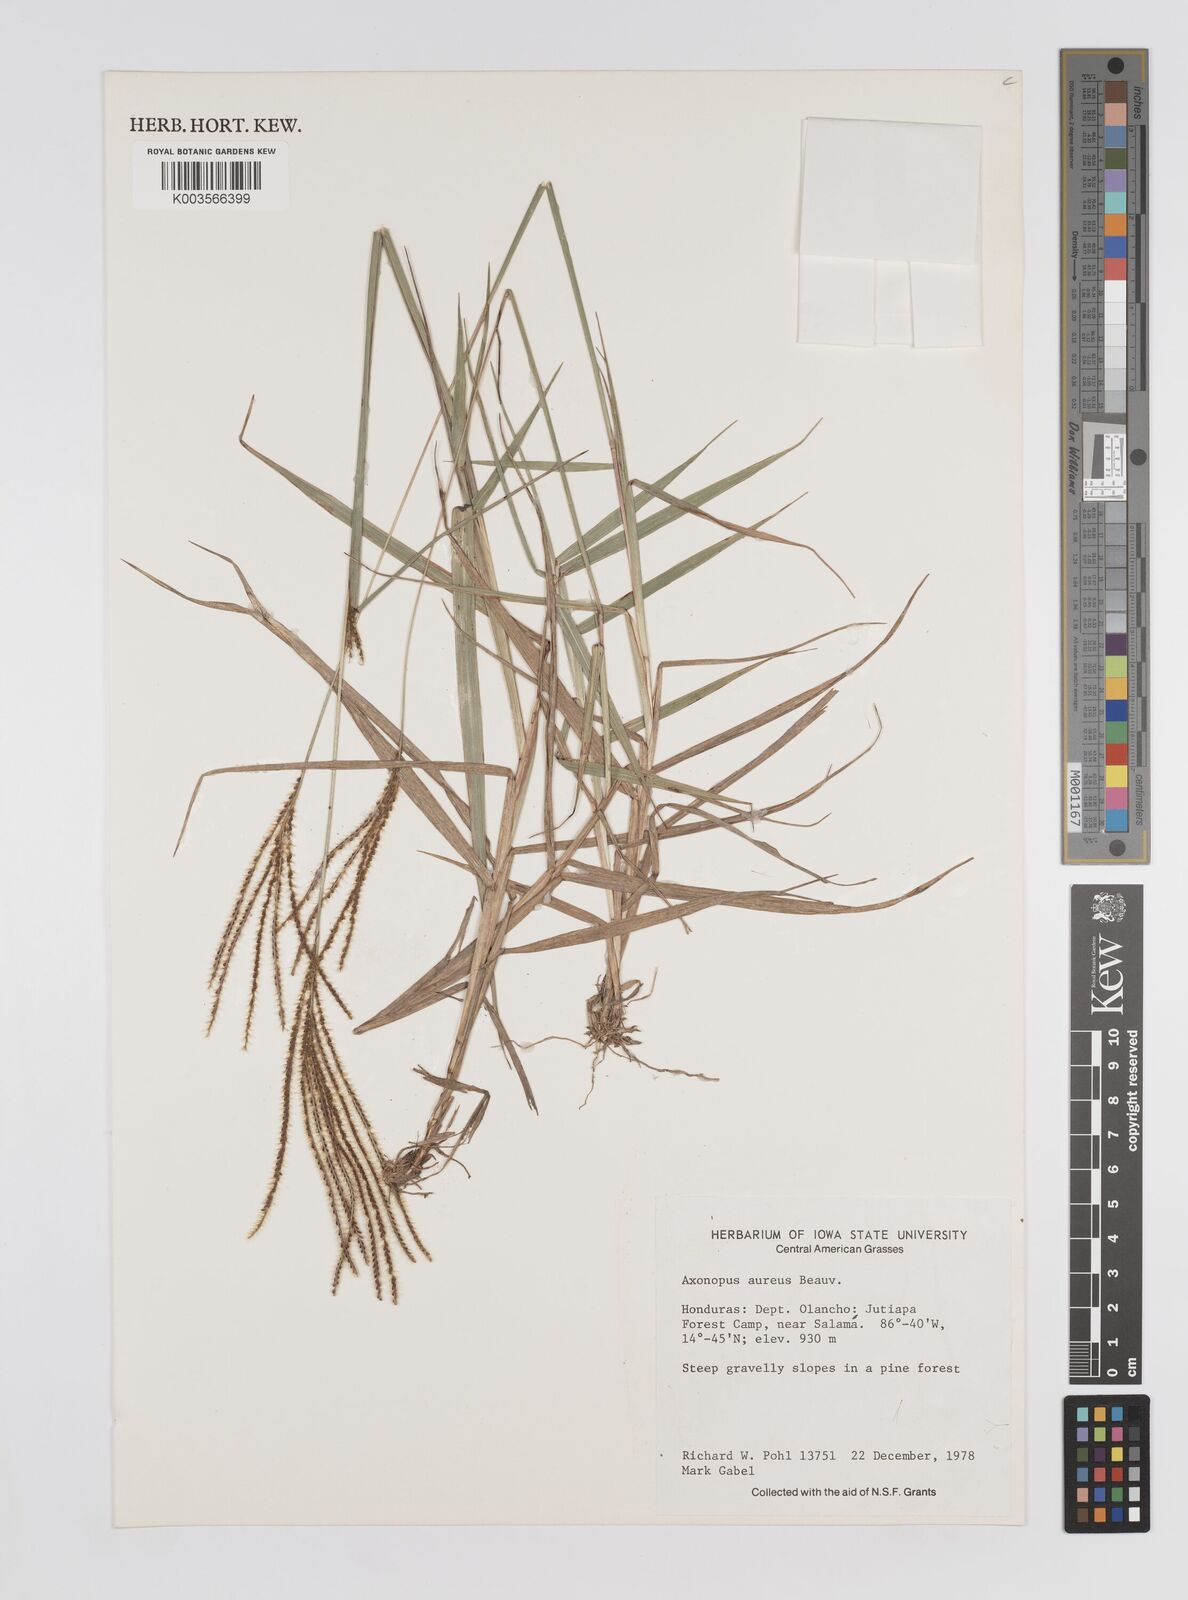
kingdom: Plantae
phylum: Tracheophyta
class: Liliopsida
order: Poales
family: Poaceae
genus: Axonopus
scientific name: Axonopus aureus
